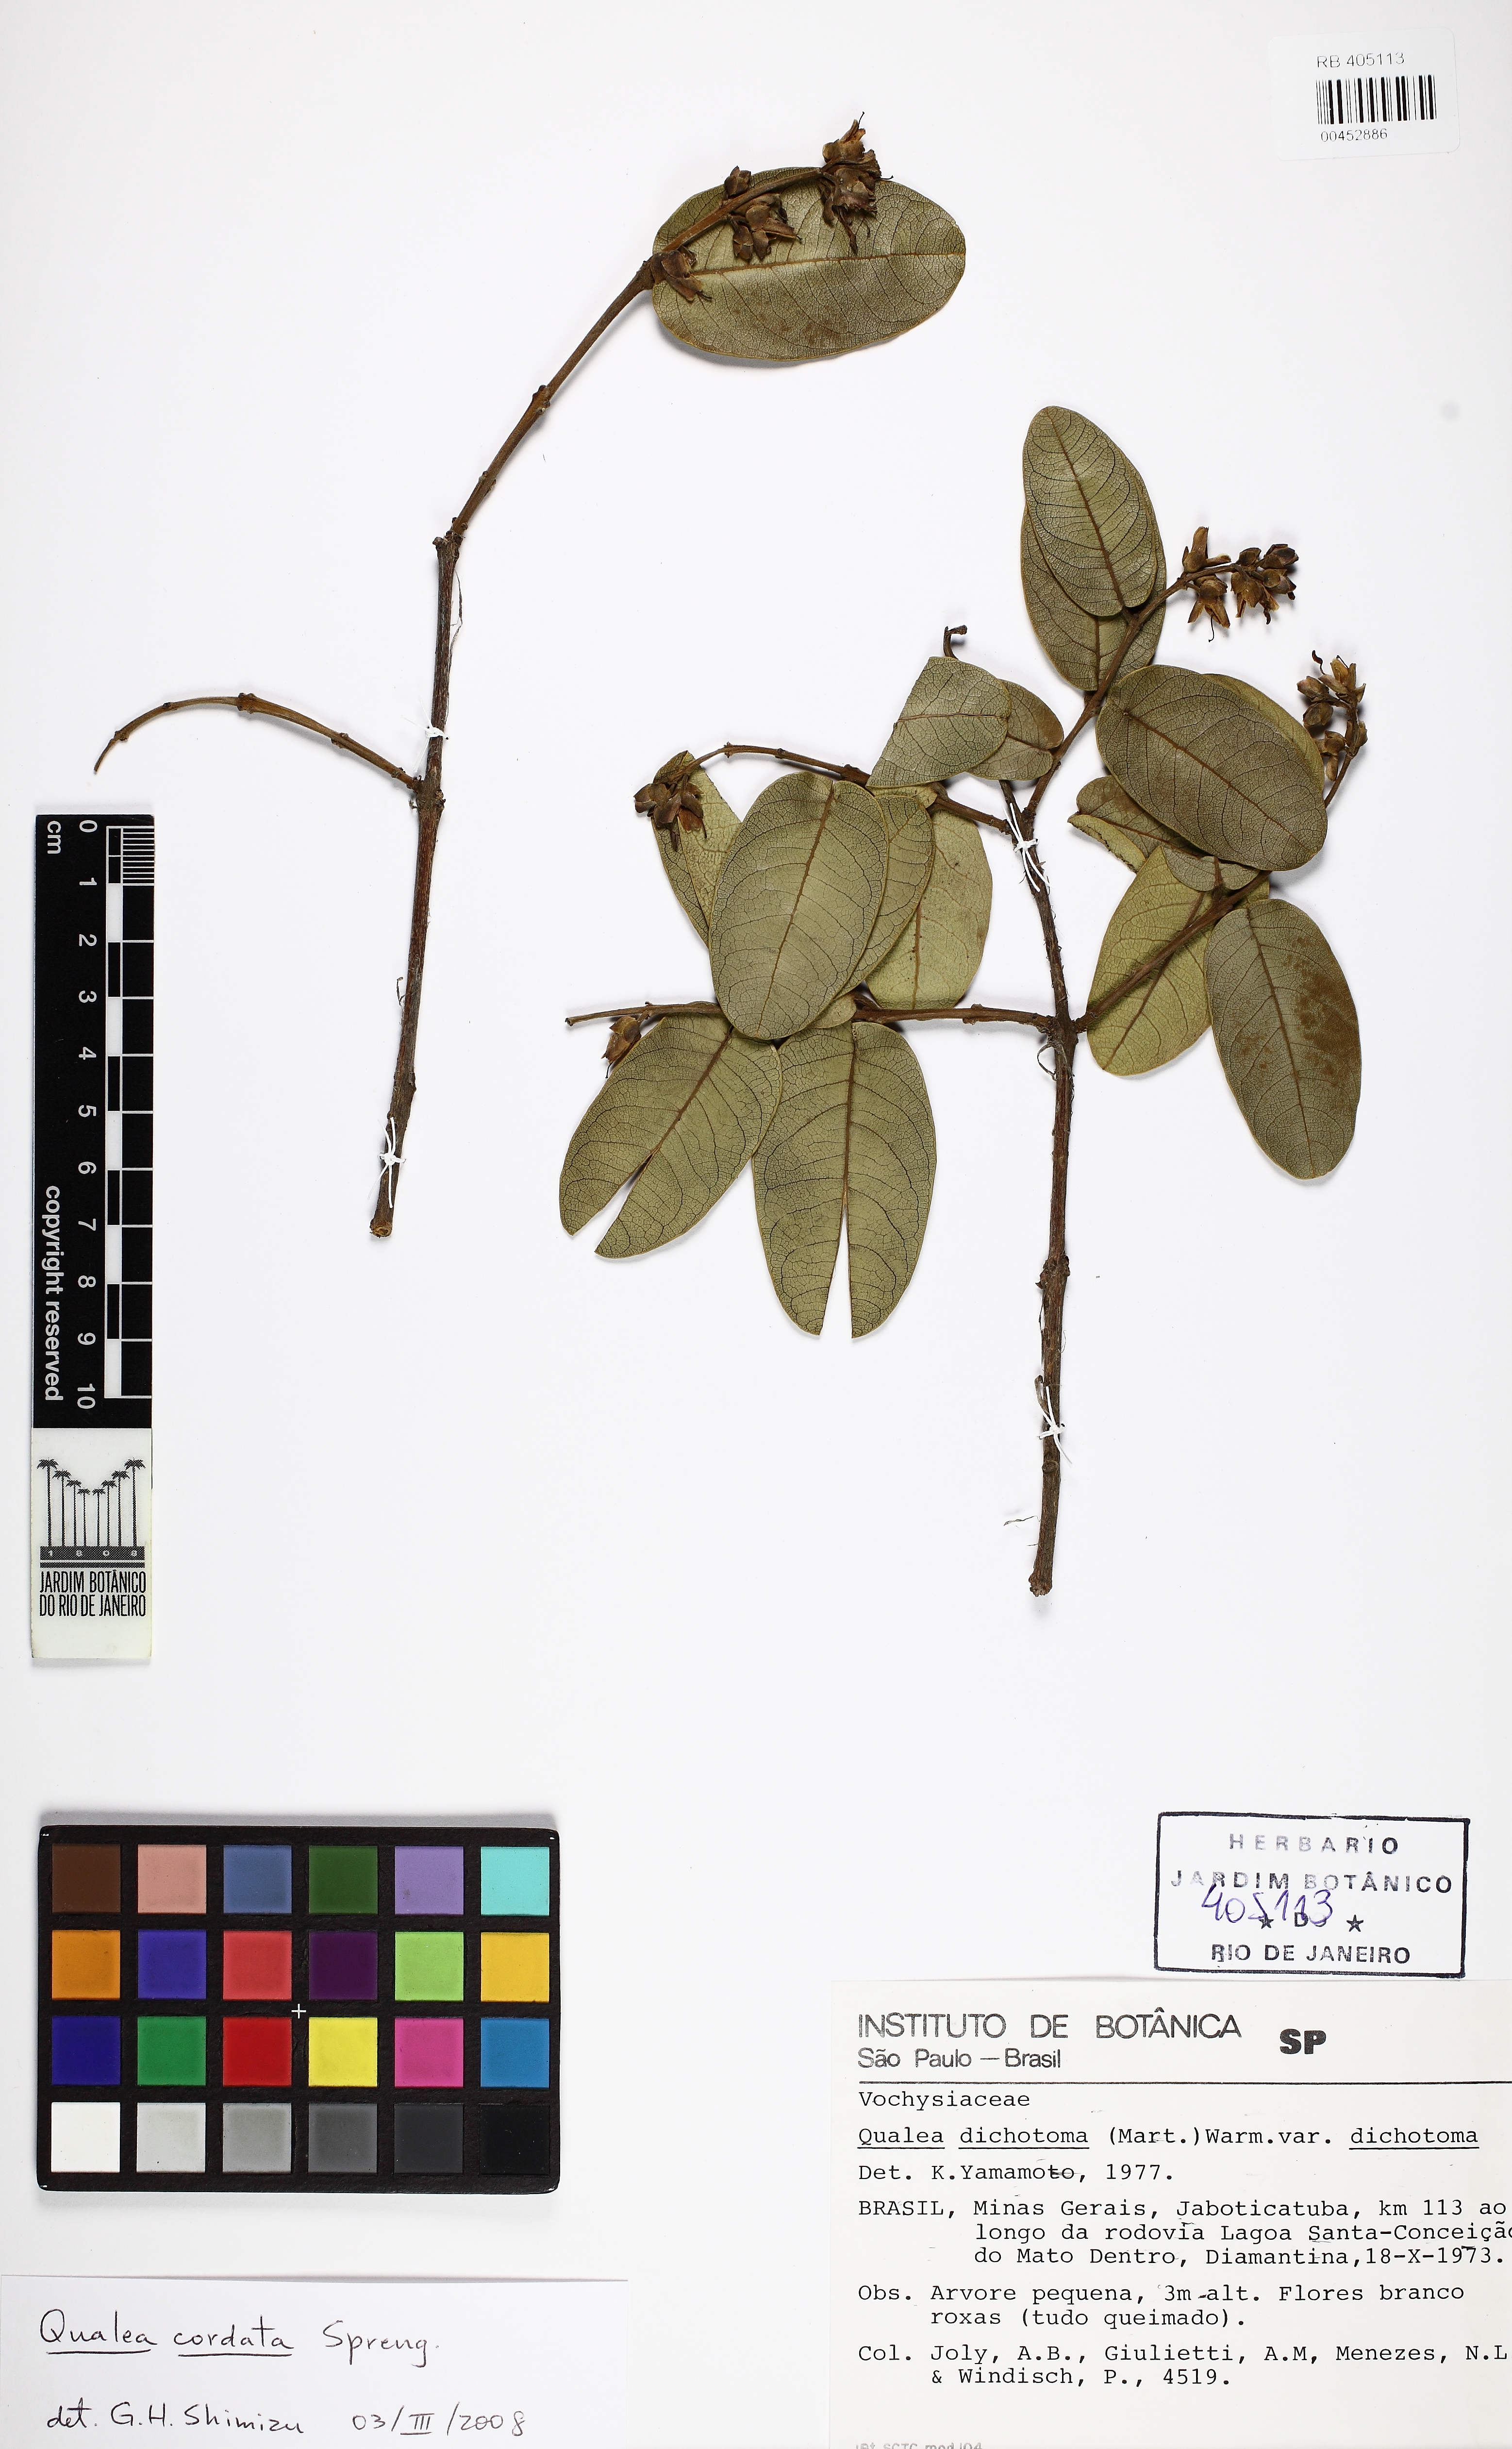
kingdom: Plantae
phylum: Tracheophyta
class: Magnoliopsida
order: Myrtales
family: Vochysiaceae
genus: Qualea
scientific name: Qualea cordata
